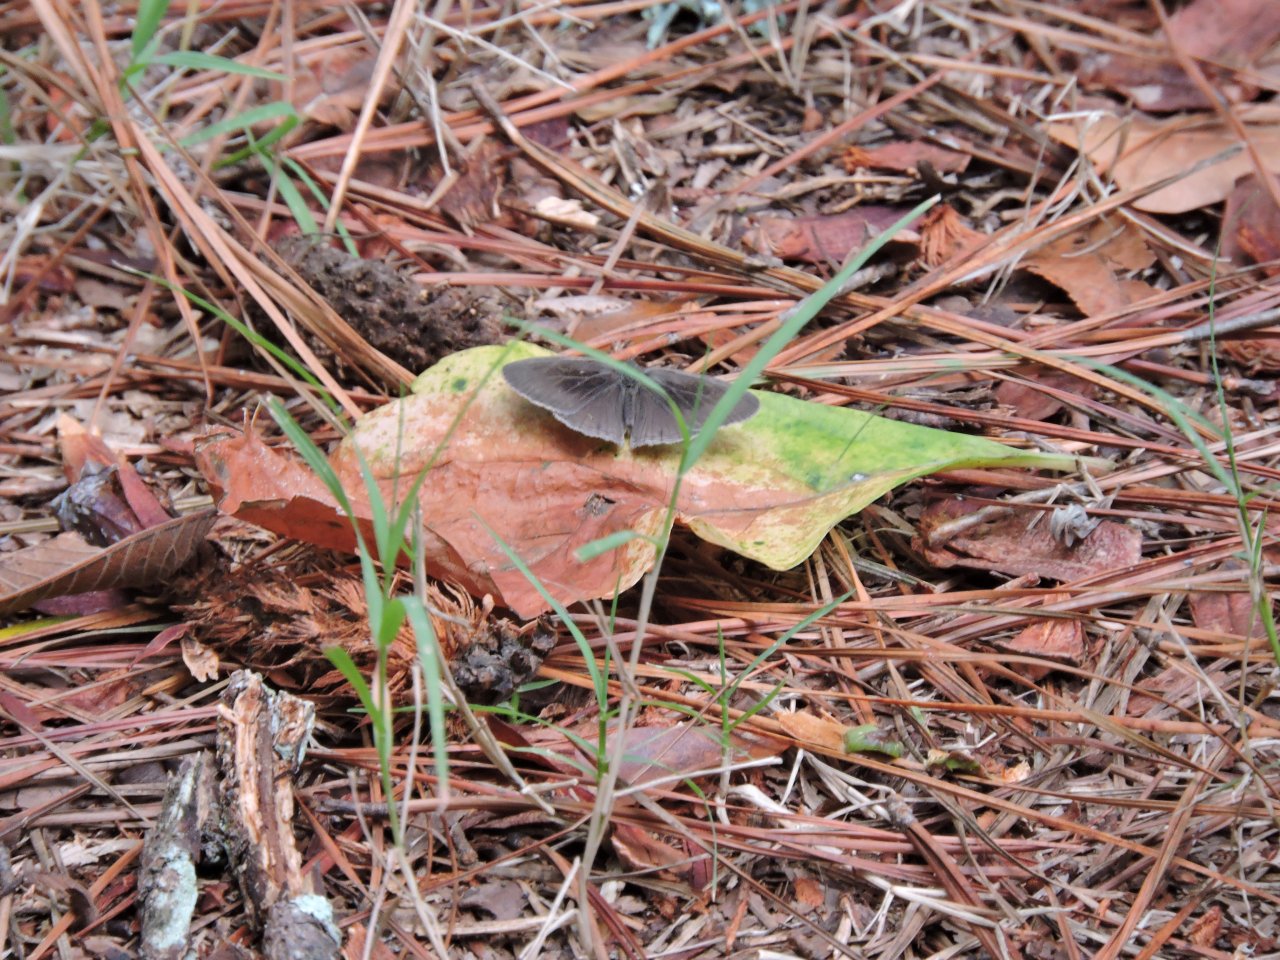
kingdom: Animalia
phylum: Arthropoda
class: Insecta
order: Lepidoptera
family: Nymphalidae
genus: Hermeuptychia
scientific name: Hermeuptychia hermes
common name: Carolina Satyr
